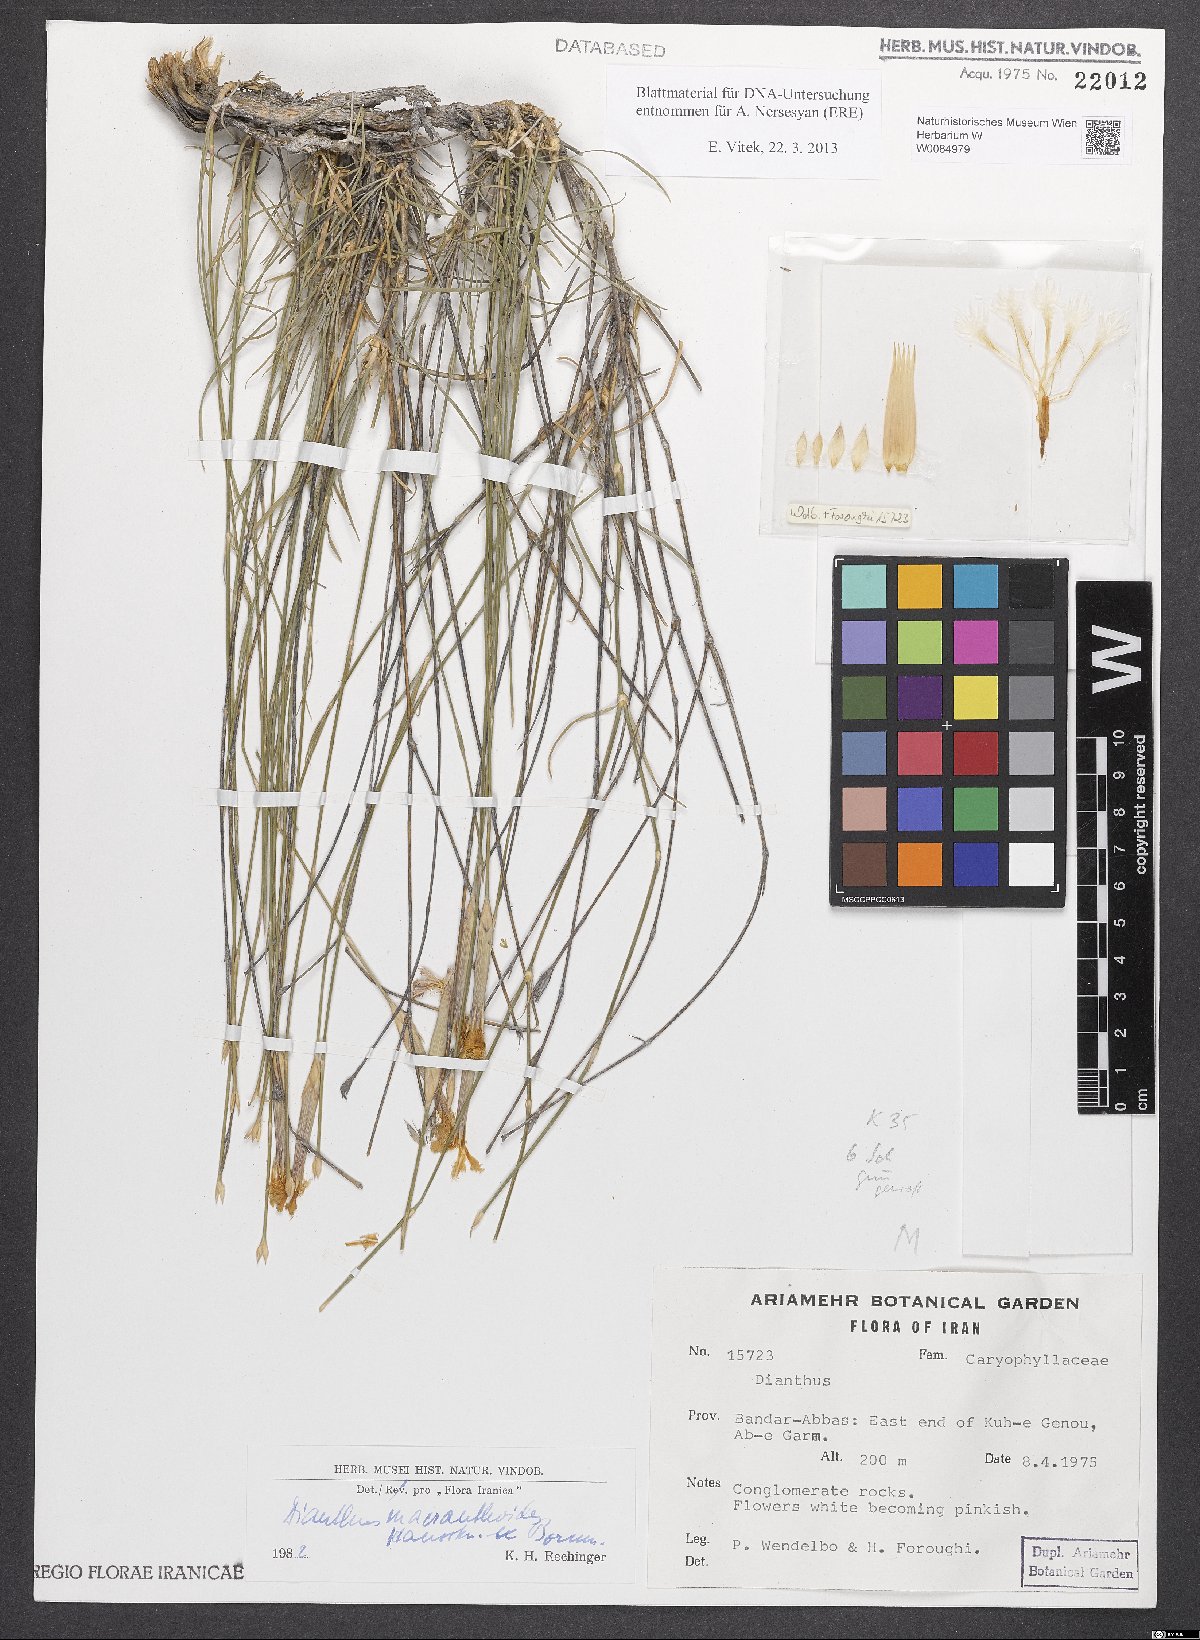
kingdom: Plantae
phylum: Tracheophyta
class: Magnoliopsida
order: Caryophyllales
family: Caryophyllaceae
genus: Dianthus
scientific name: Dianthus macranthoides
